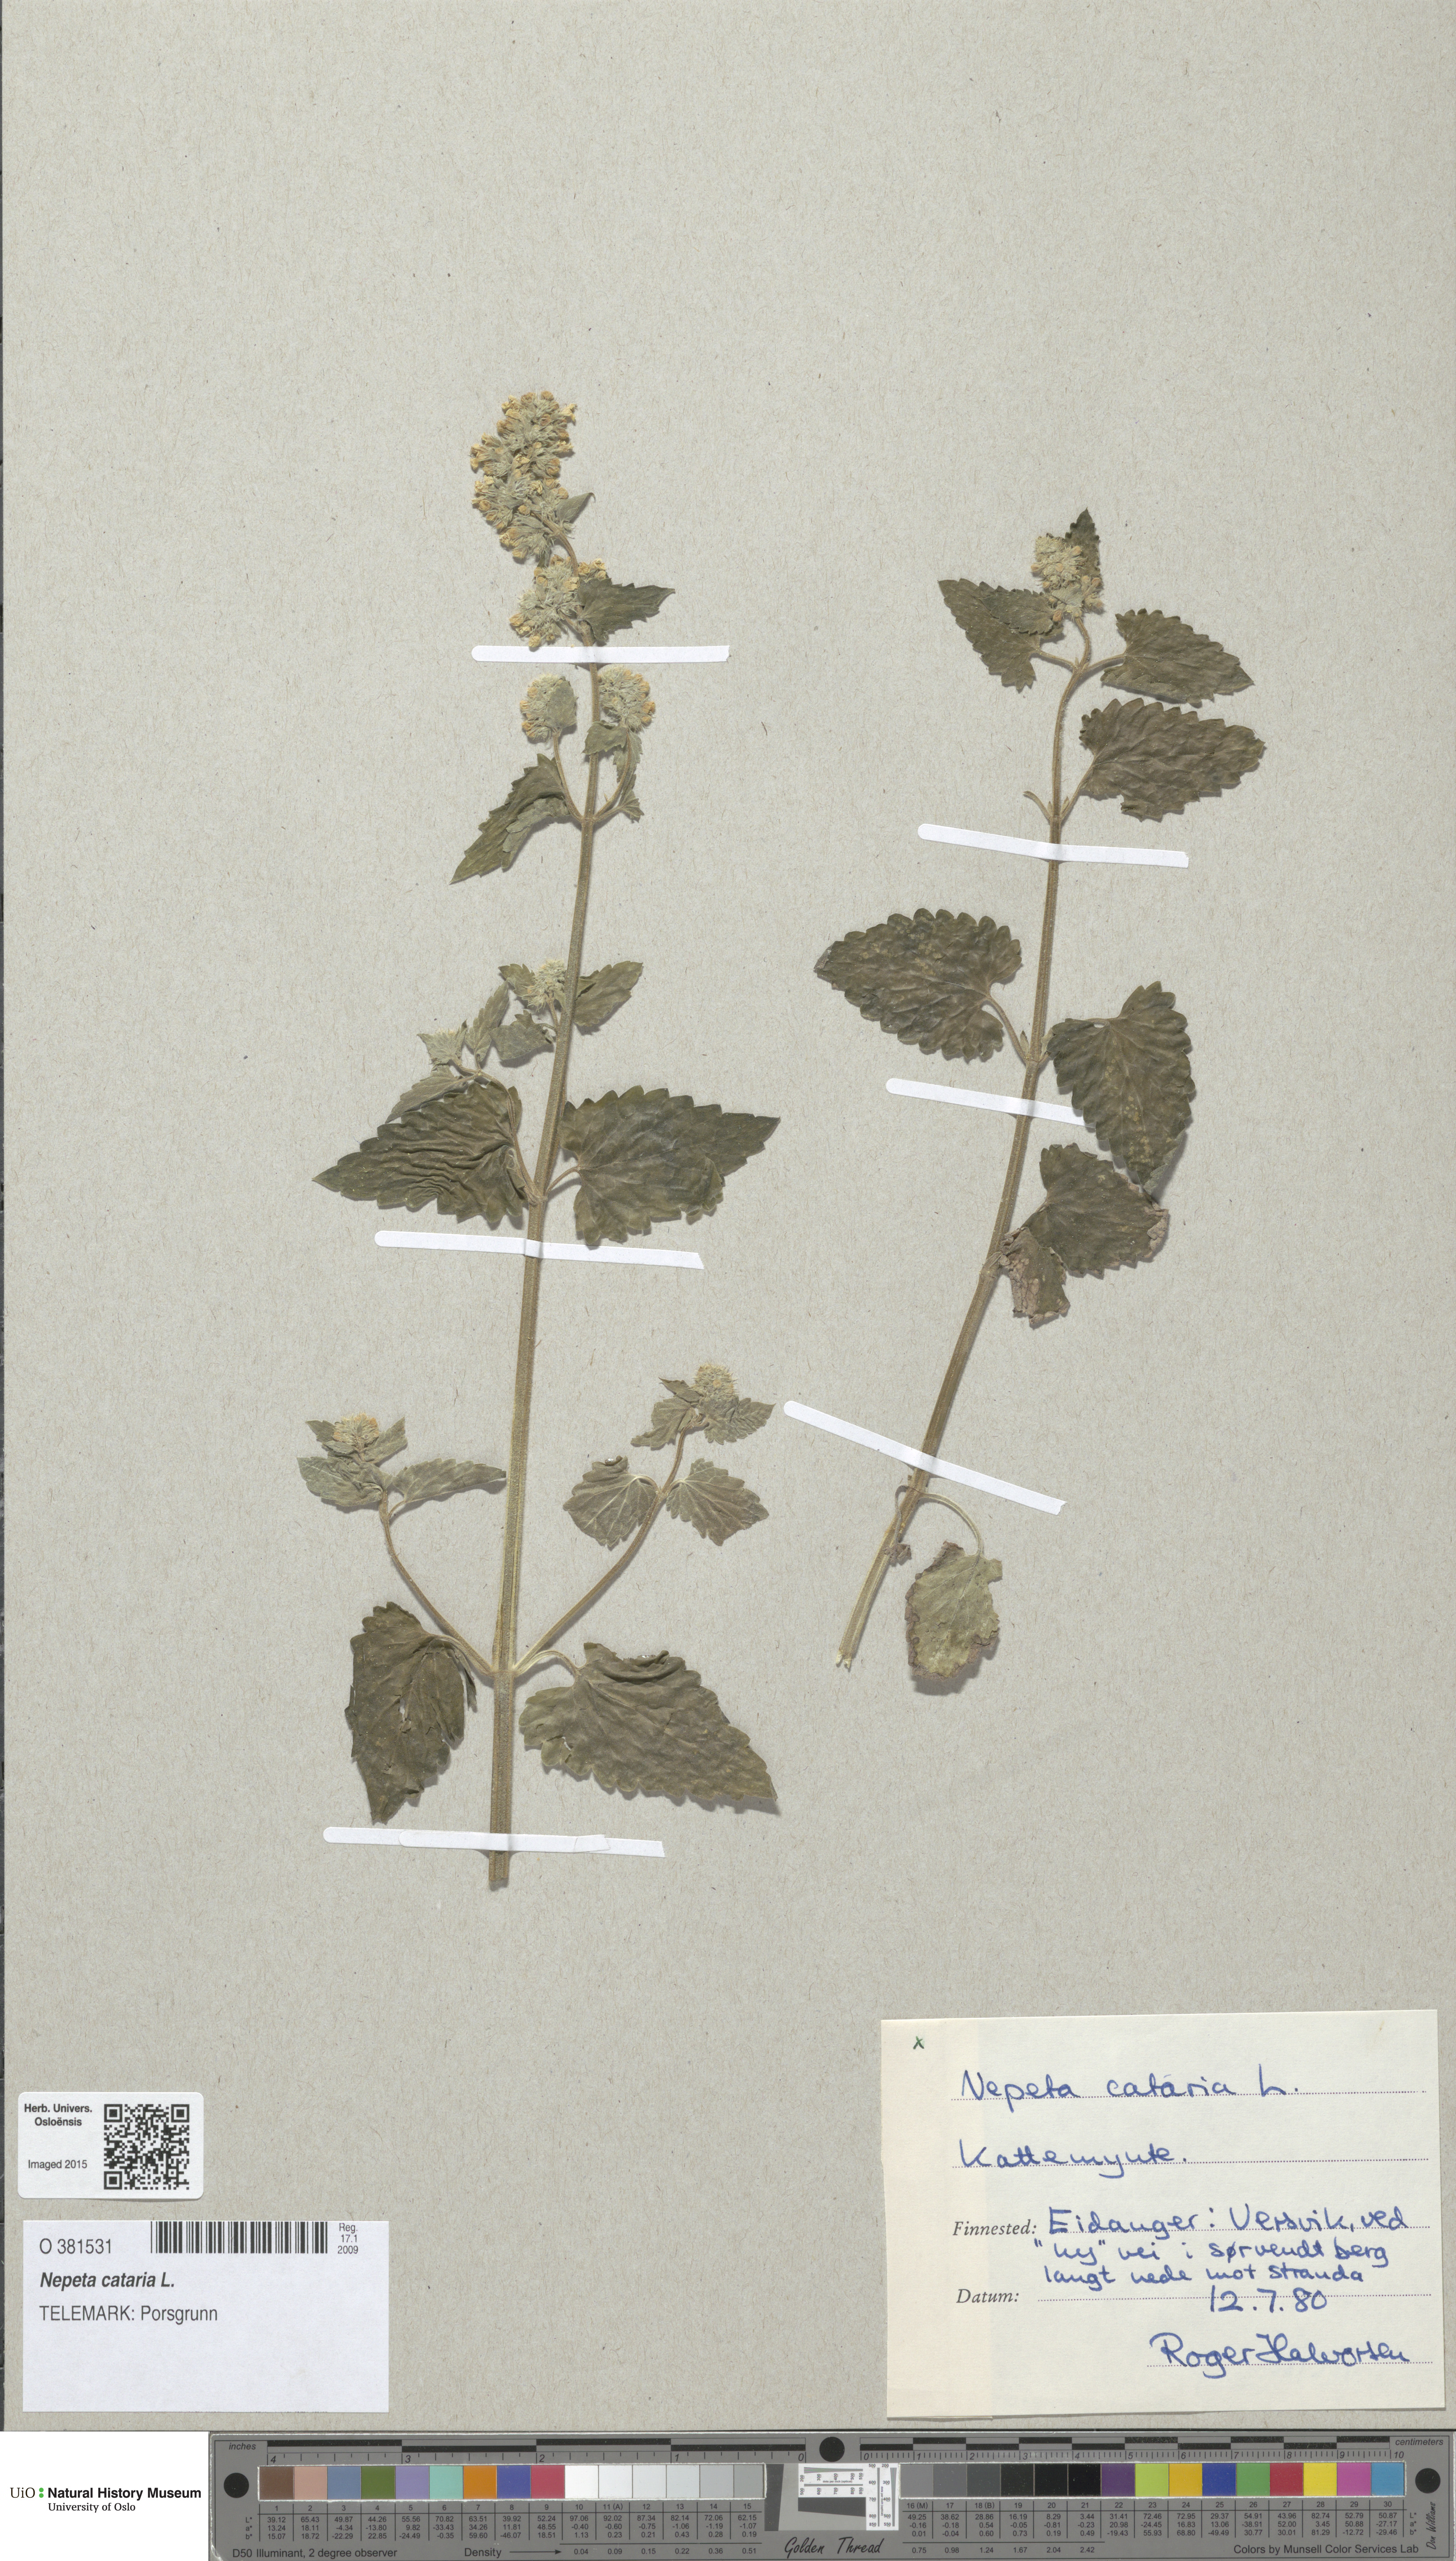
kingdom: Plantae
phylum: Tracheophyta
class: Magnoliopsida
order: Lamiales
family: Lamiaceae
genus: Nepeta
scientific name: Nepeta cataria
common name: Catnip
